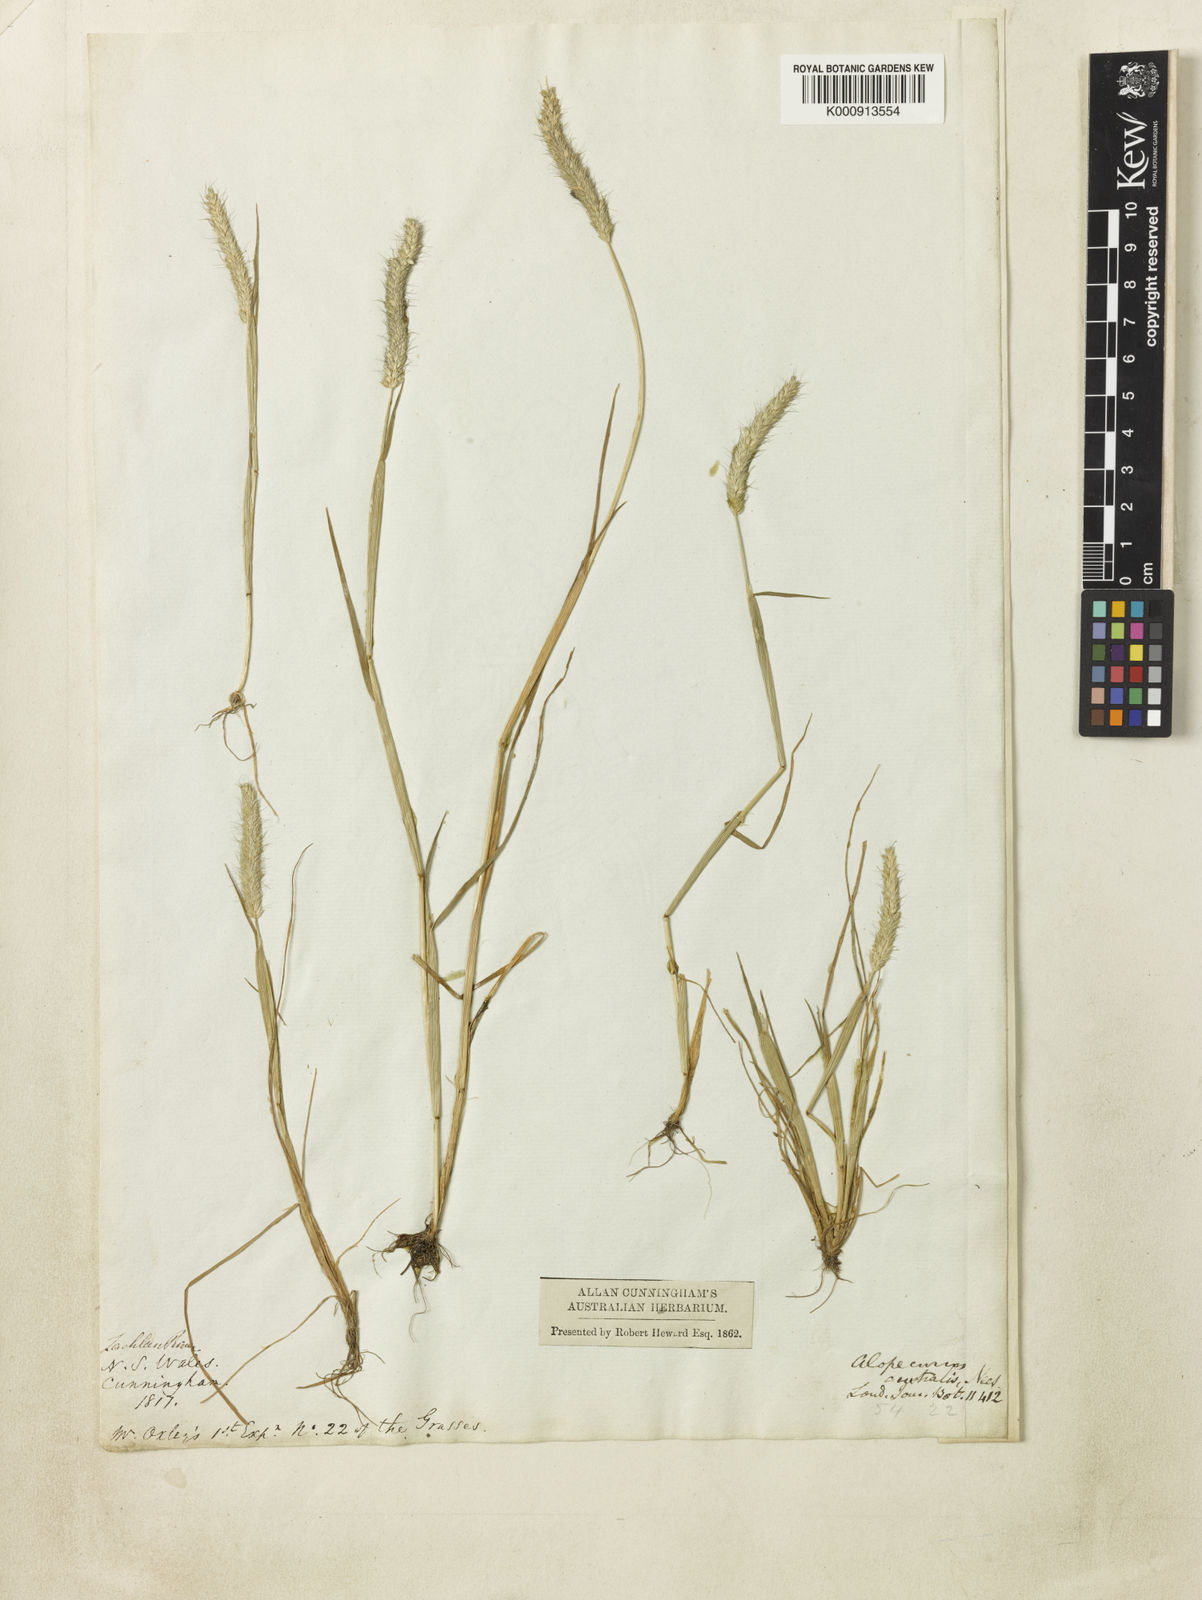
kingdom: Plantae
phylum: Tracheophyta
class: Liliopsida
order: Poales
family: Poaceae
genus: Alopecurus
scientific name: Alopecurus geniculatus
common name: Water foxtail
